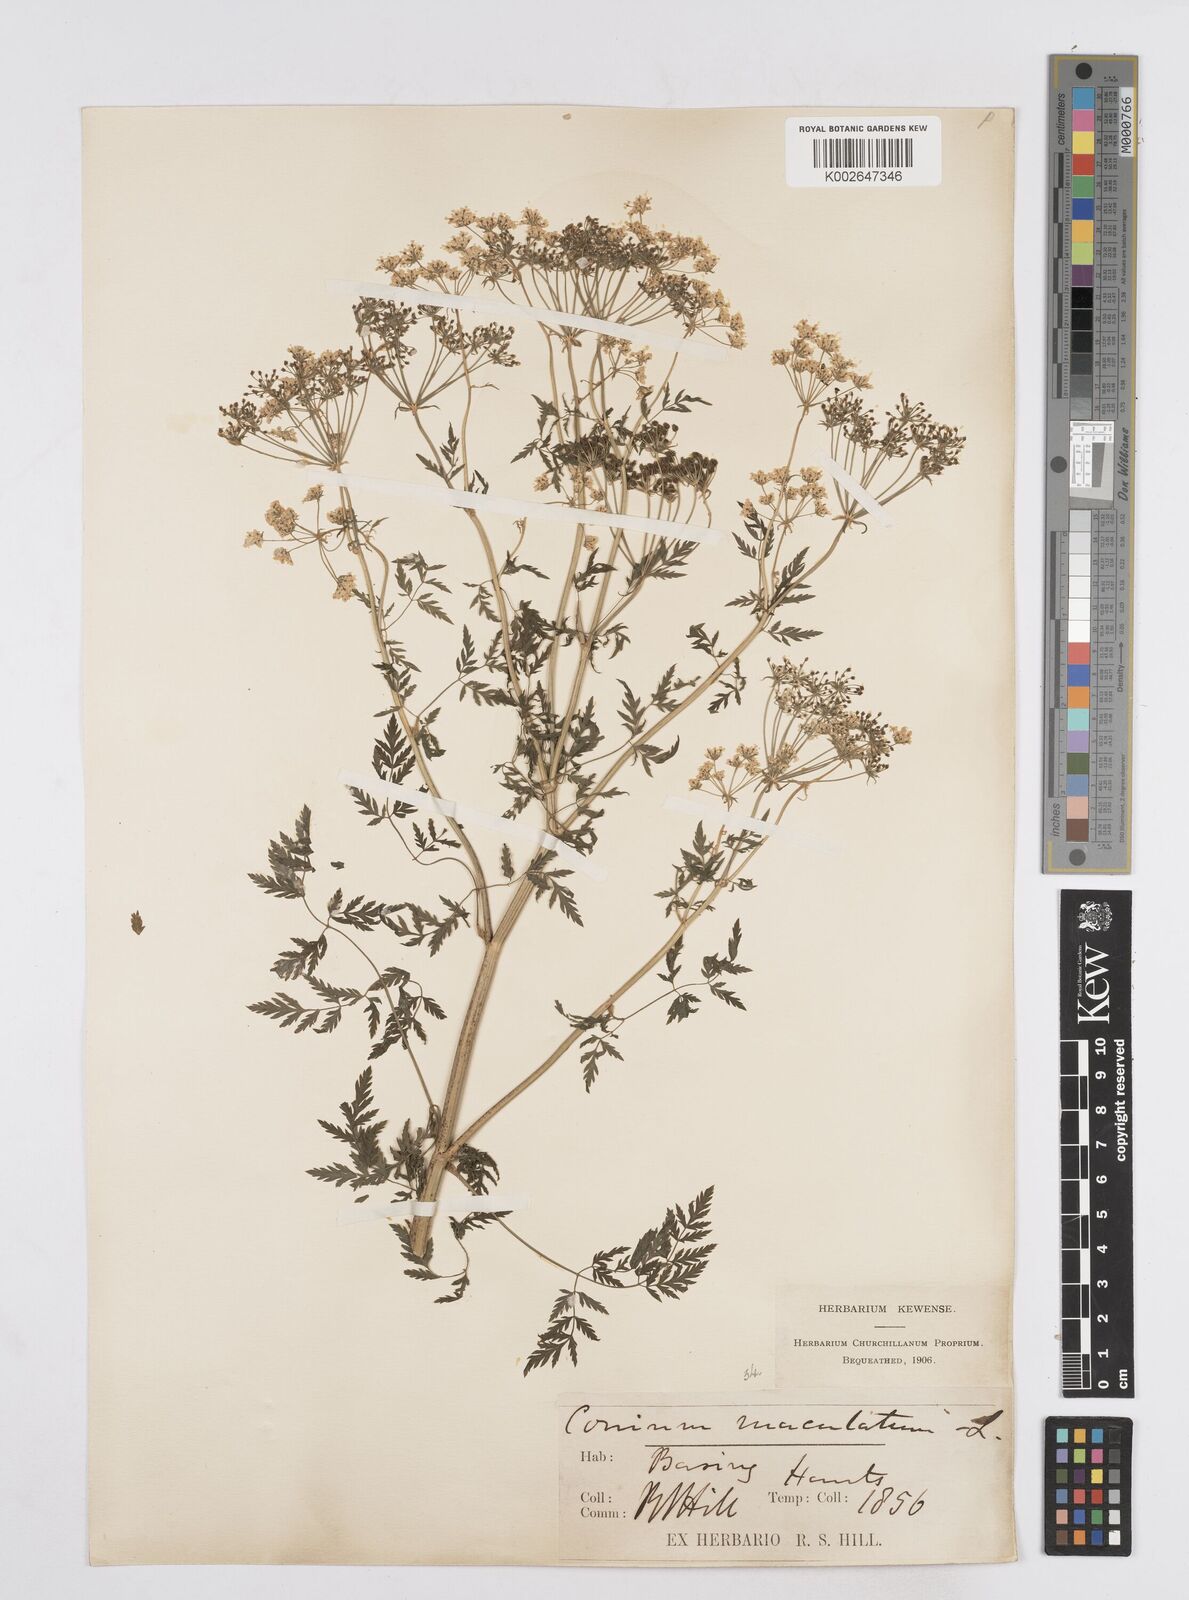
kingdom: Plantae
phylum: Tracheophyta
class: Magnoliopsida
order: Apiales
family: Apiaceae
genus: Conium
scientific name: Conium maculatum
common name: Hemlock
